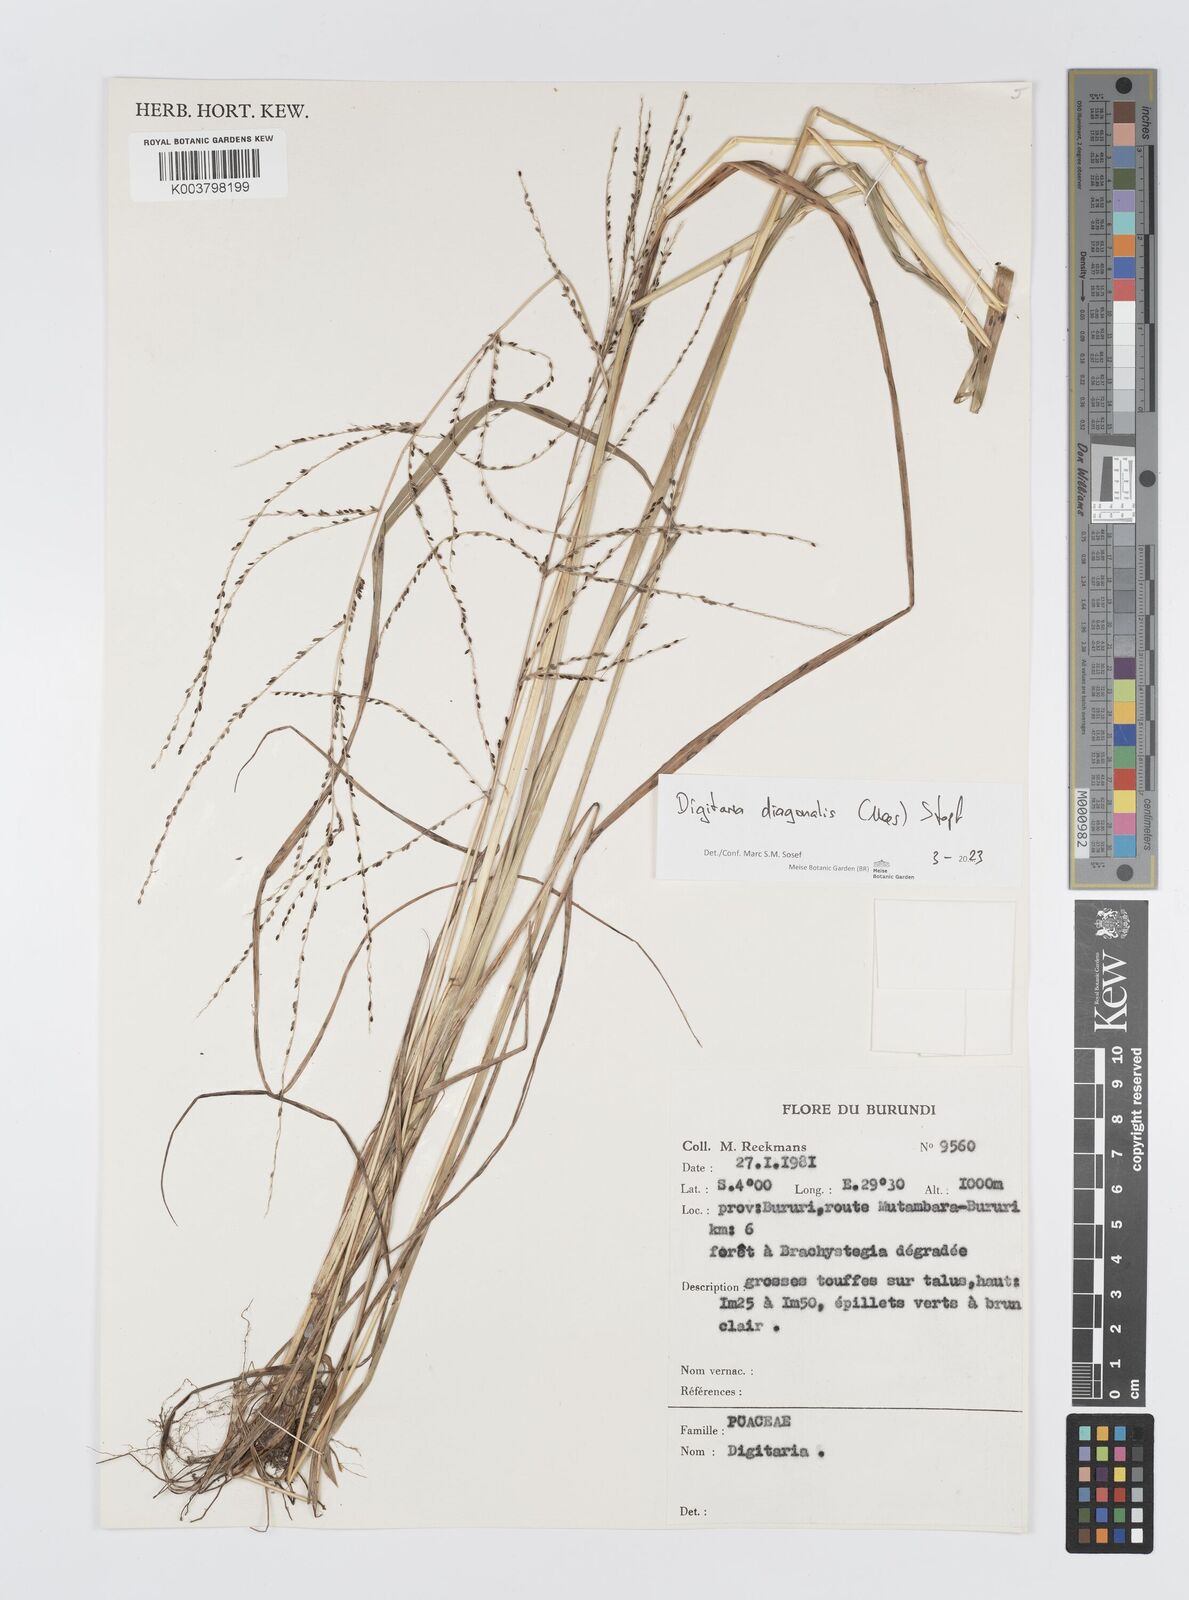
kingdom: Plantae
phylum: Tracheophyta
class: Liliopsida
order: Poales
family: Poaceae
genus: Digitaria
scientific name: Digitaria diagonalis
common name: Brown-seed finger grass
